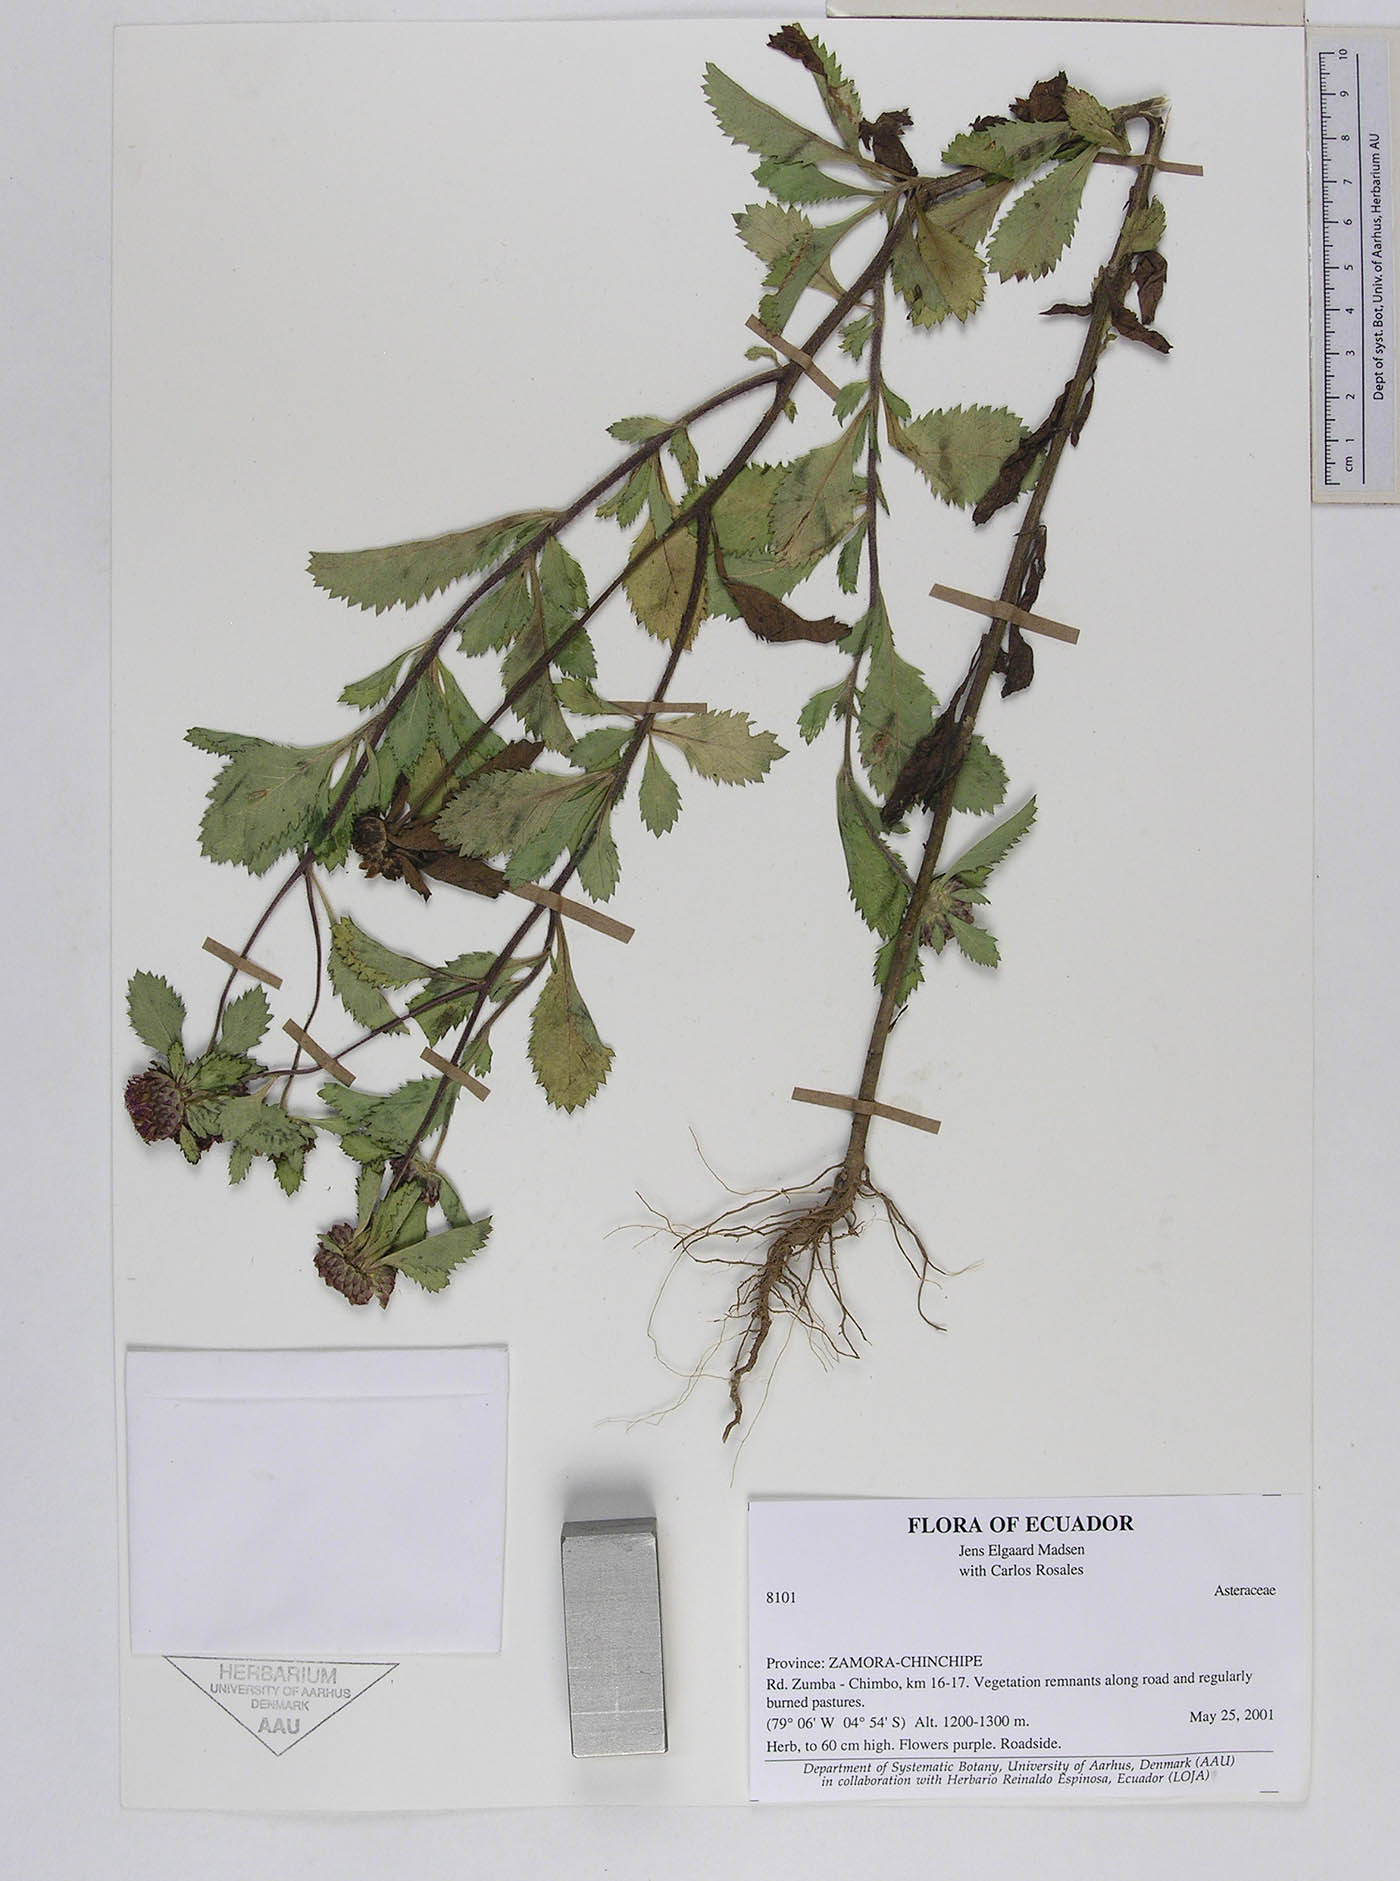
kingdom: Plantae
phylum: Tracheophyta
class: Magnoliopsida
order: Asterales
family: Asteraceae
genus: Centratherum
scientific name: Centratherum punctatum
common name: Larkdaisy
